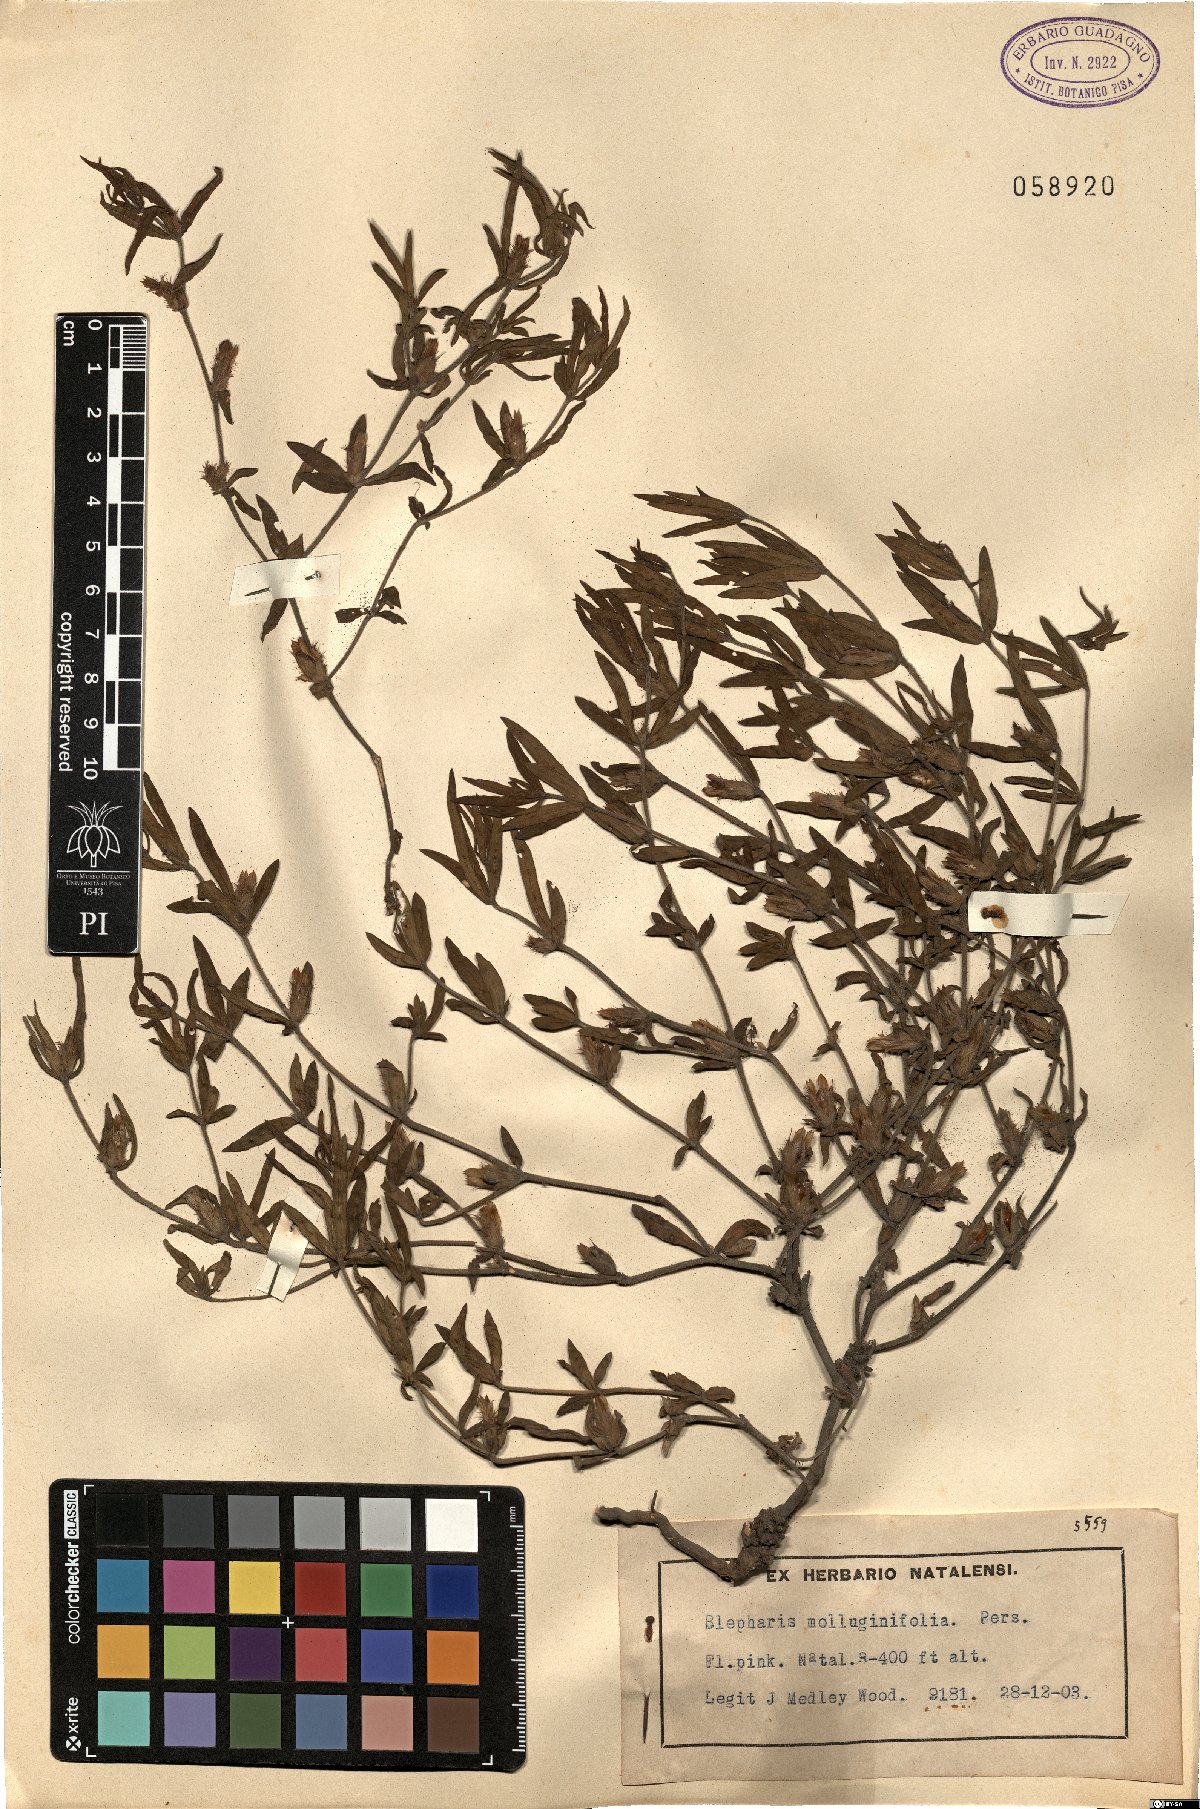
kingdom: Plantae
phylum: Tracheophyta
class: Magnoliopsida
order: Lamiales
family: Acanthaceae
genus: Blepharis
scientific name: Blepharis integrifolia
